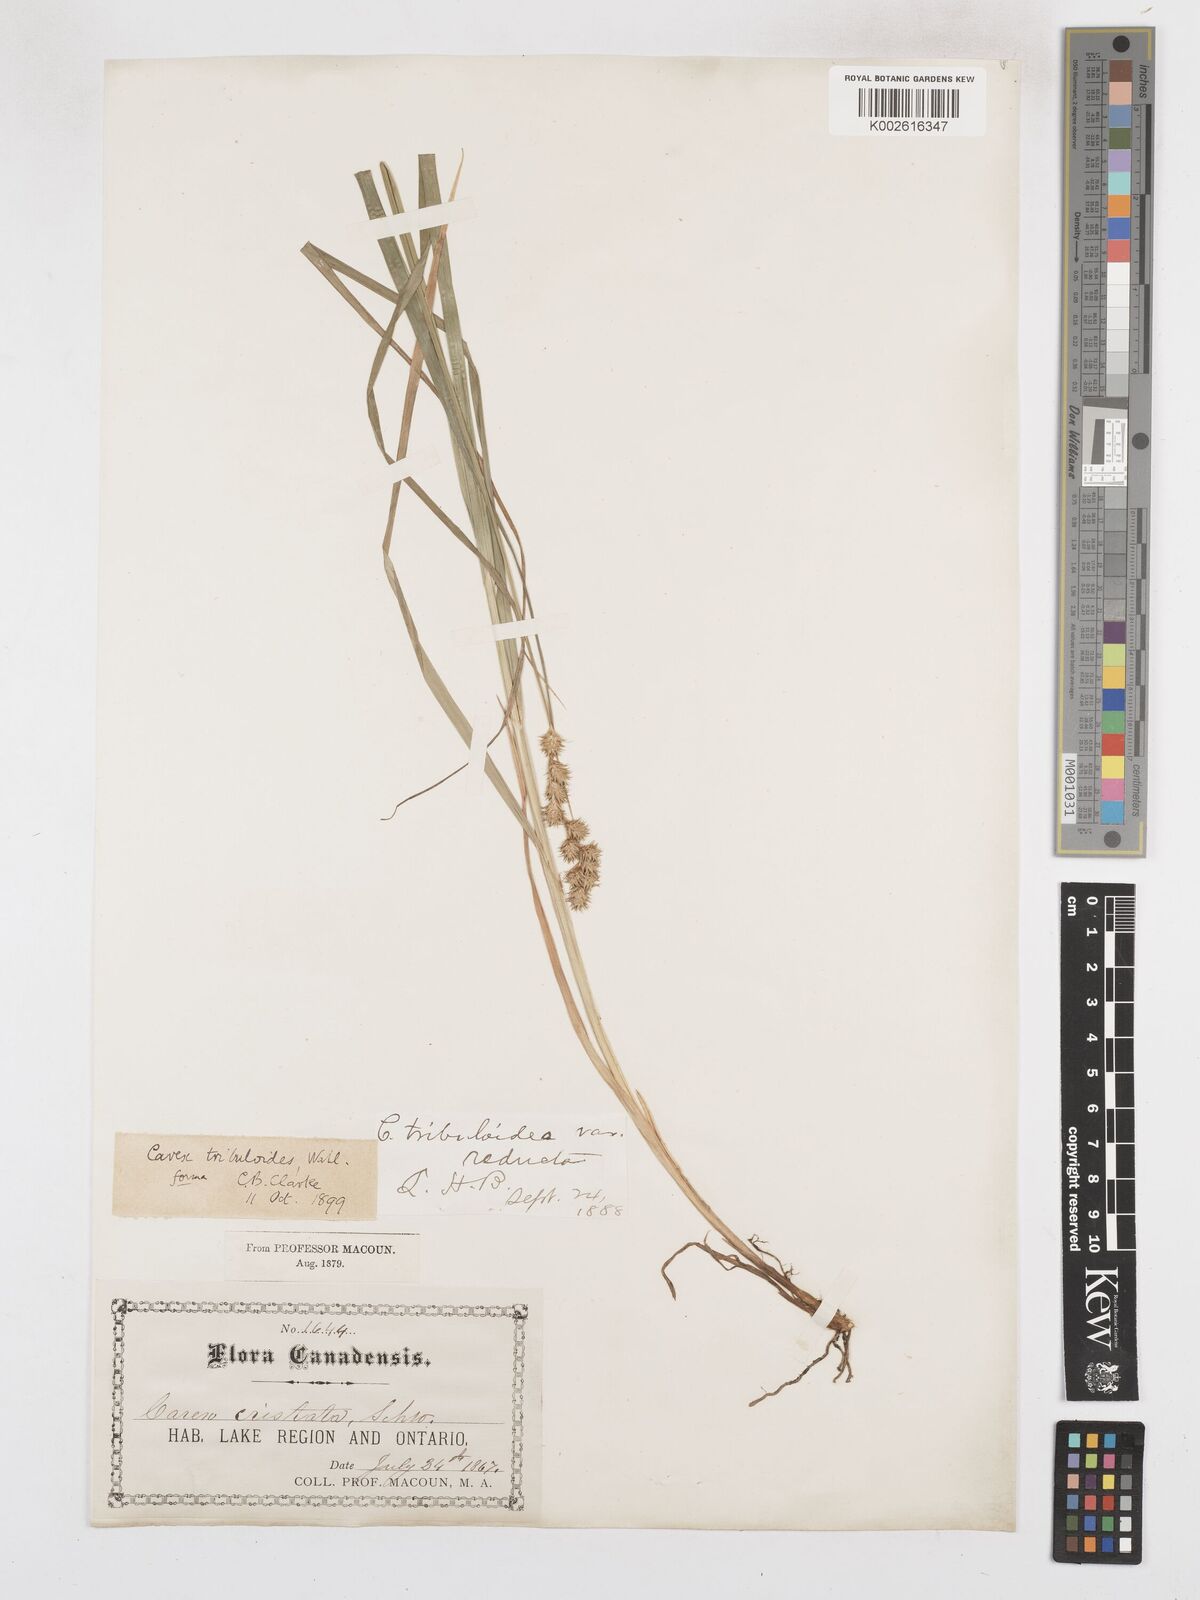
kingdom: Plantae
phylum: Tracheophyta
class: Liliopsida
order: Poales
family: Cyperaceae
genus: Carex
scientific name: Carex tribuloides
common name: Blunt broom sedge
